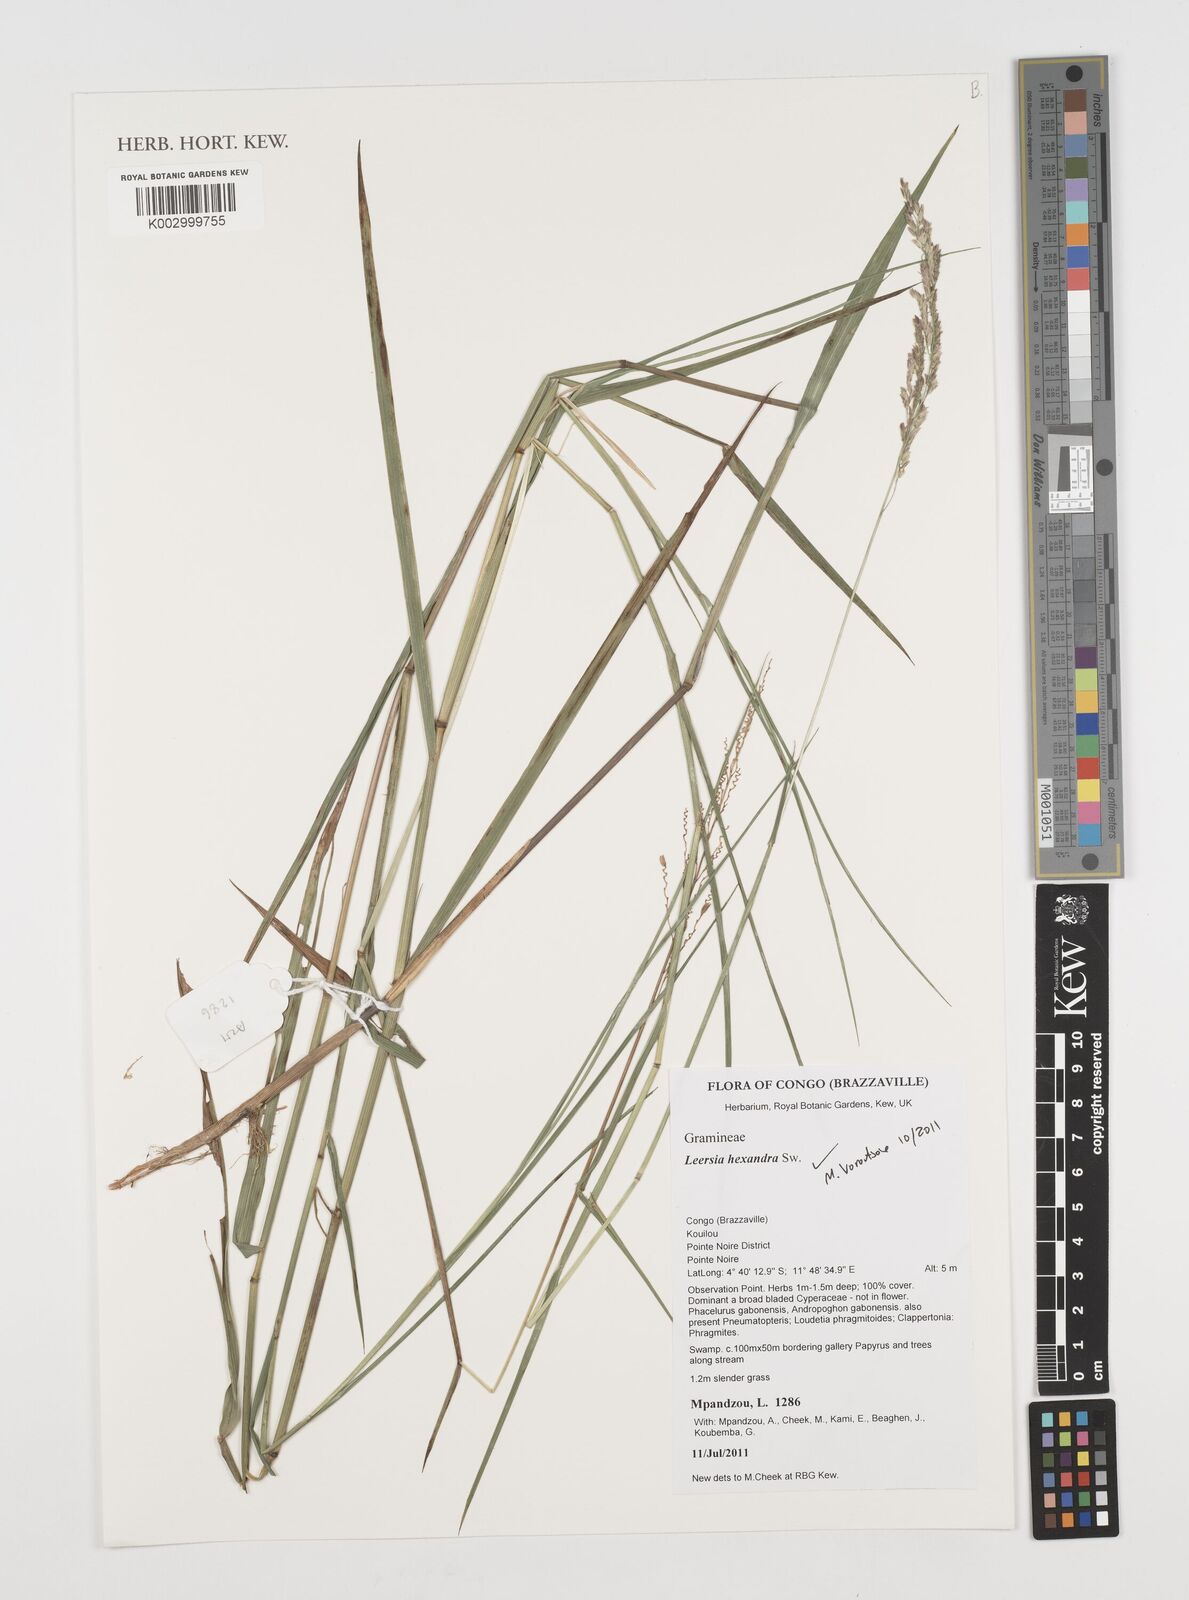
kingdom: Plantae
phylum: Tracheophyta
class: Liliopsida
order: Poales
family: Poaceae
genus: Leersia
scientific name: Leersia hexandra
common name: Southern cut grass
